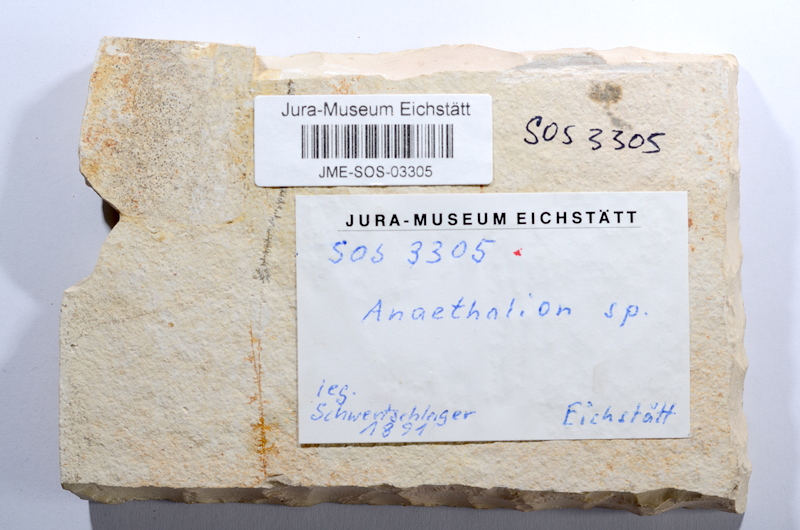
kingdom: Animalia
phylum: Chordata
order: Elopiformes
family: Anaethalionidae
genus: Anaethalion
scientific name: Anaethalion subovatus
